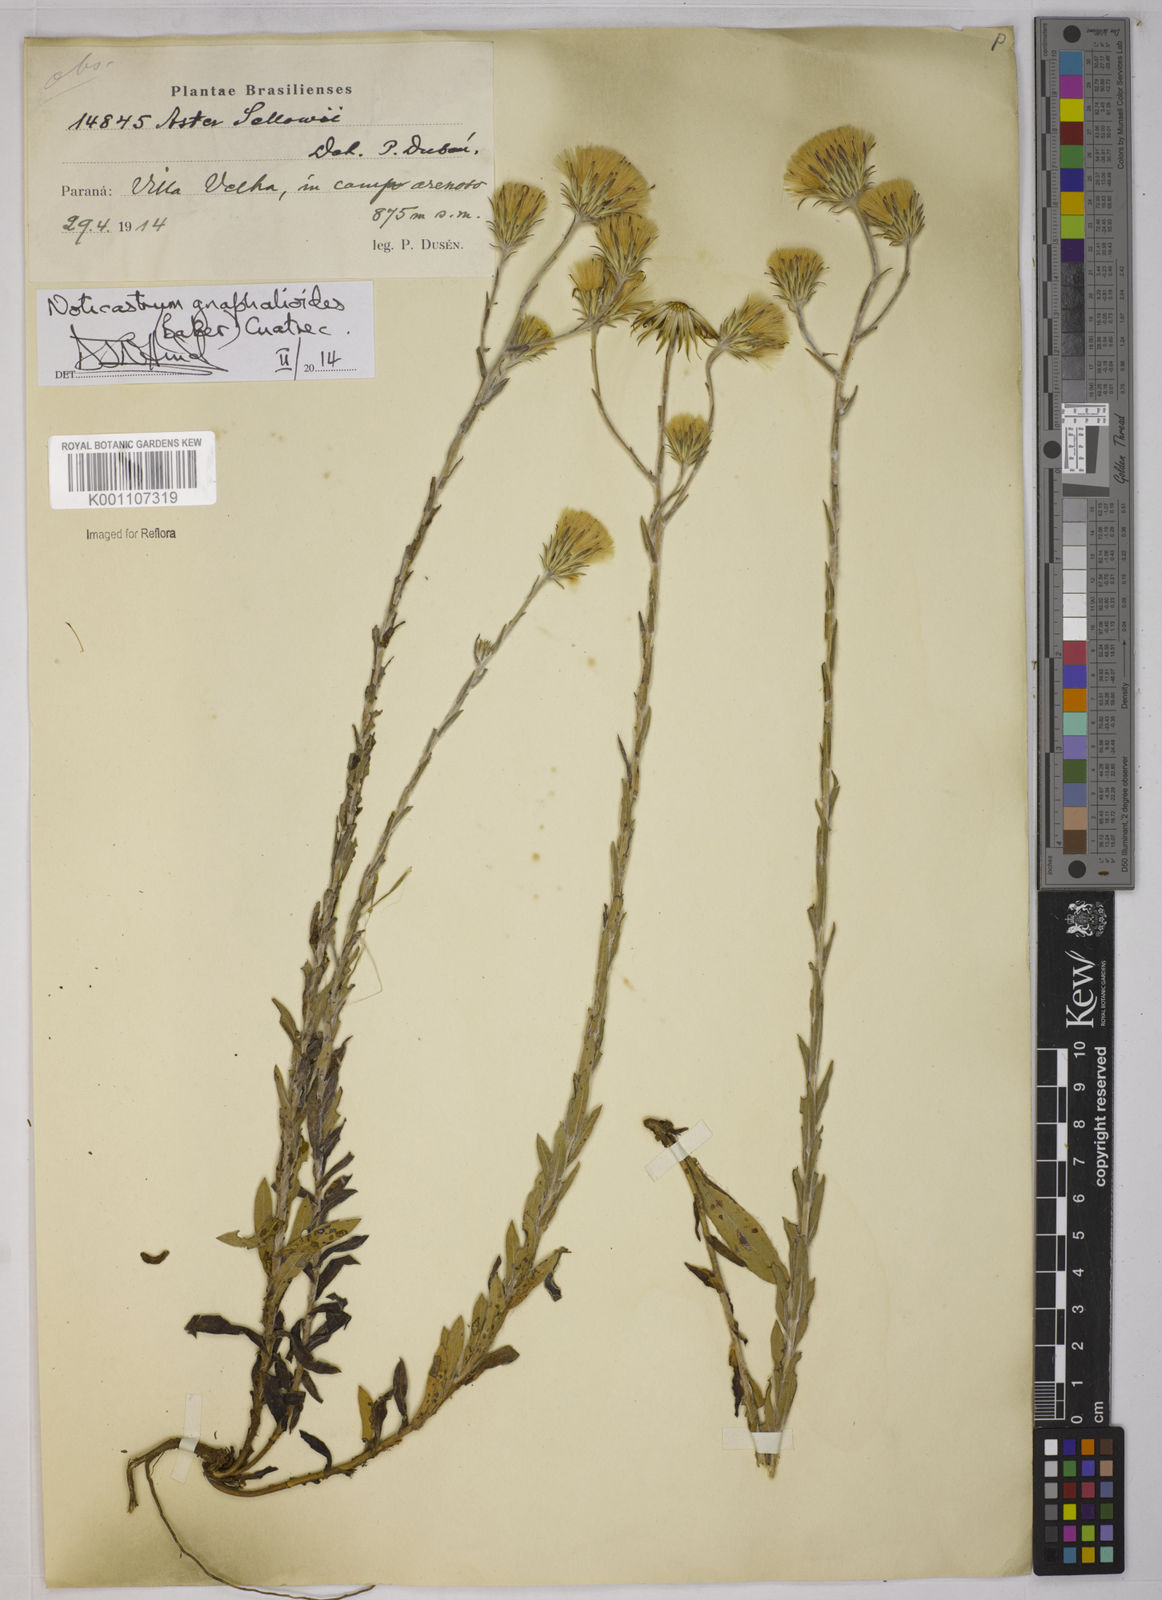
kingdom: Plantae
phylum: Tracheophyta
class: Magnoliopsida
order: Asterales
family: Asteraceae
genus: Noticastrum
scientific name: Noticastrum gnaphalioides
